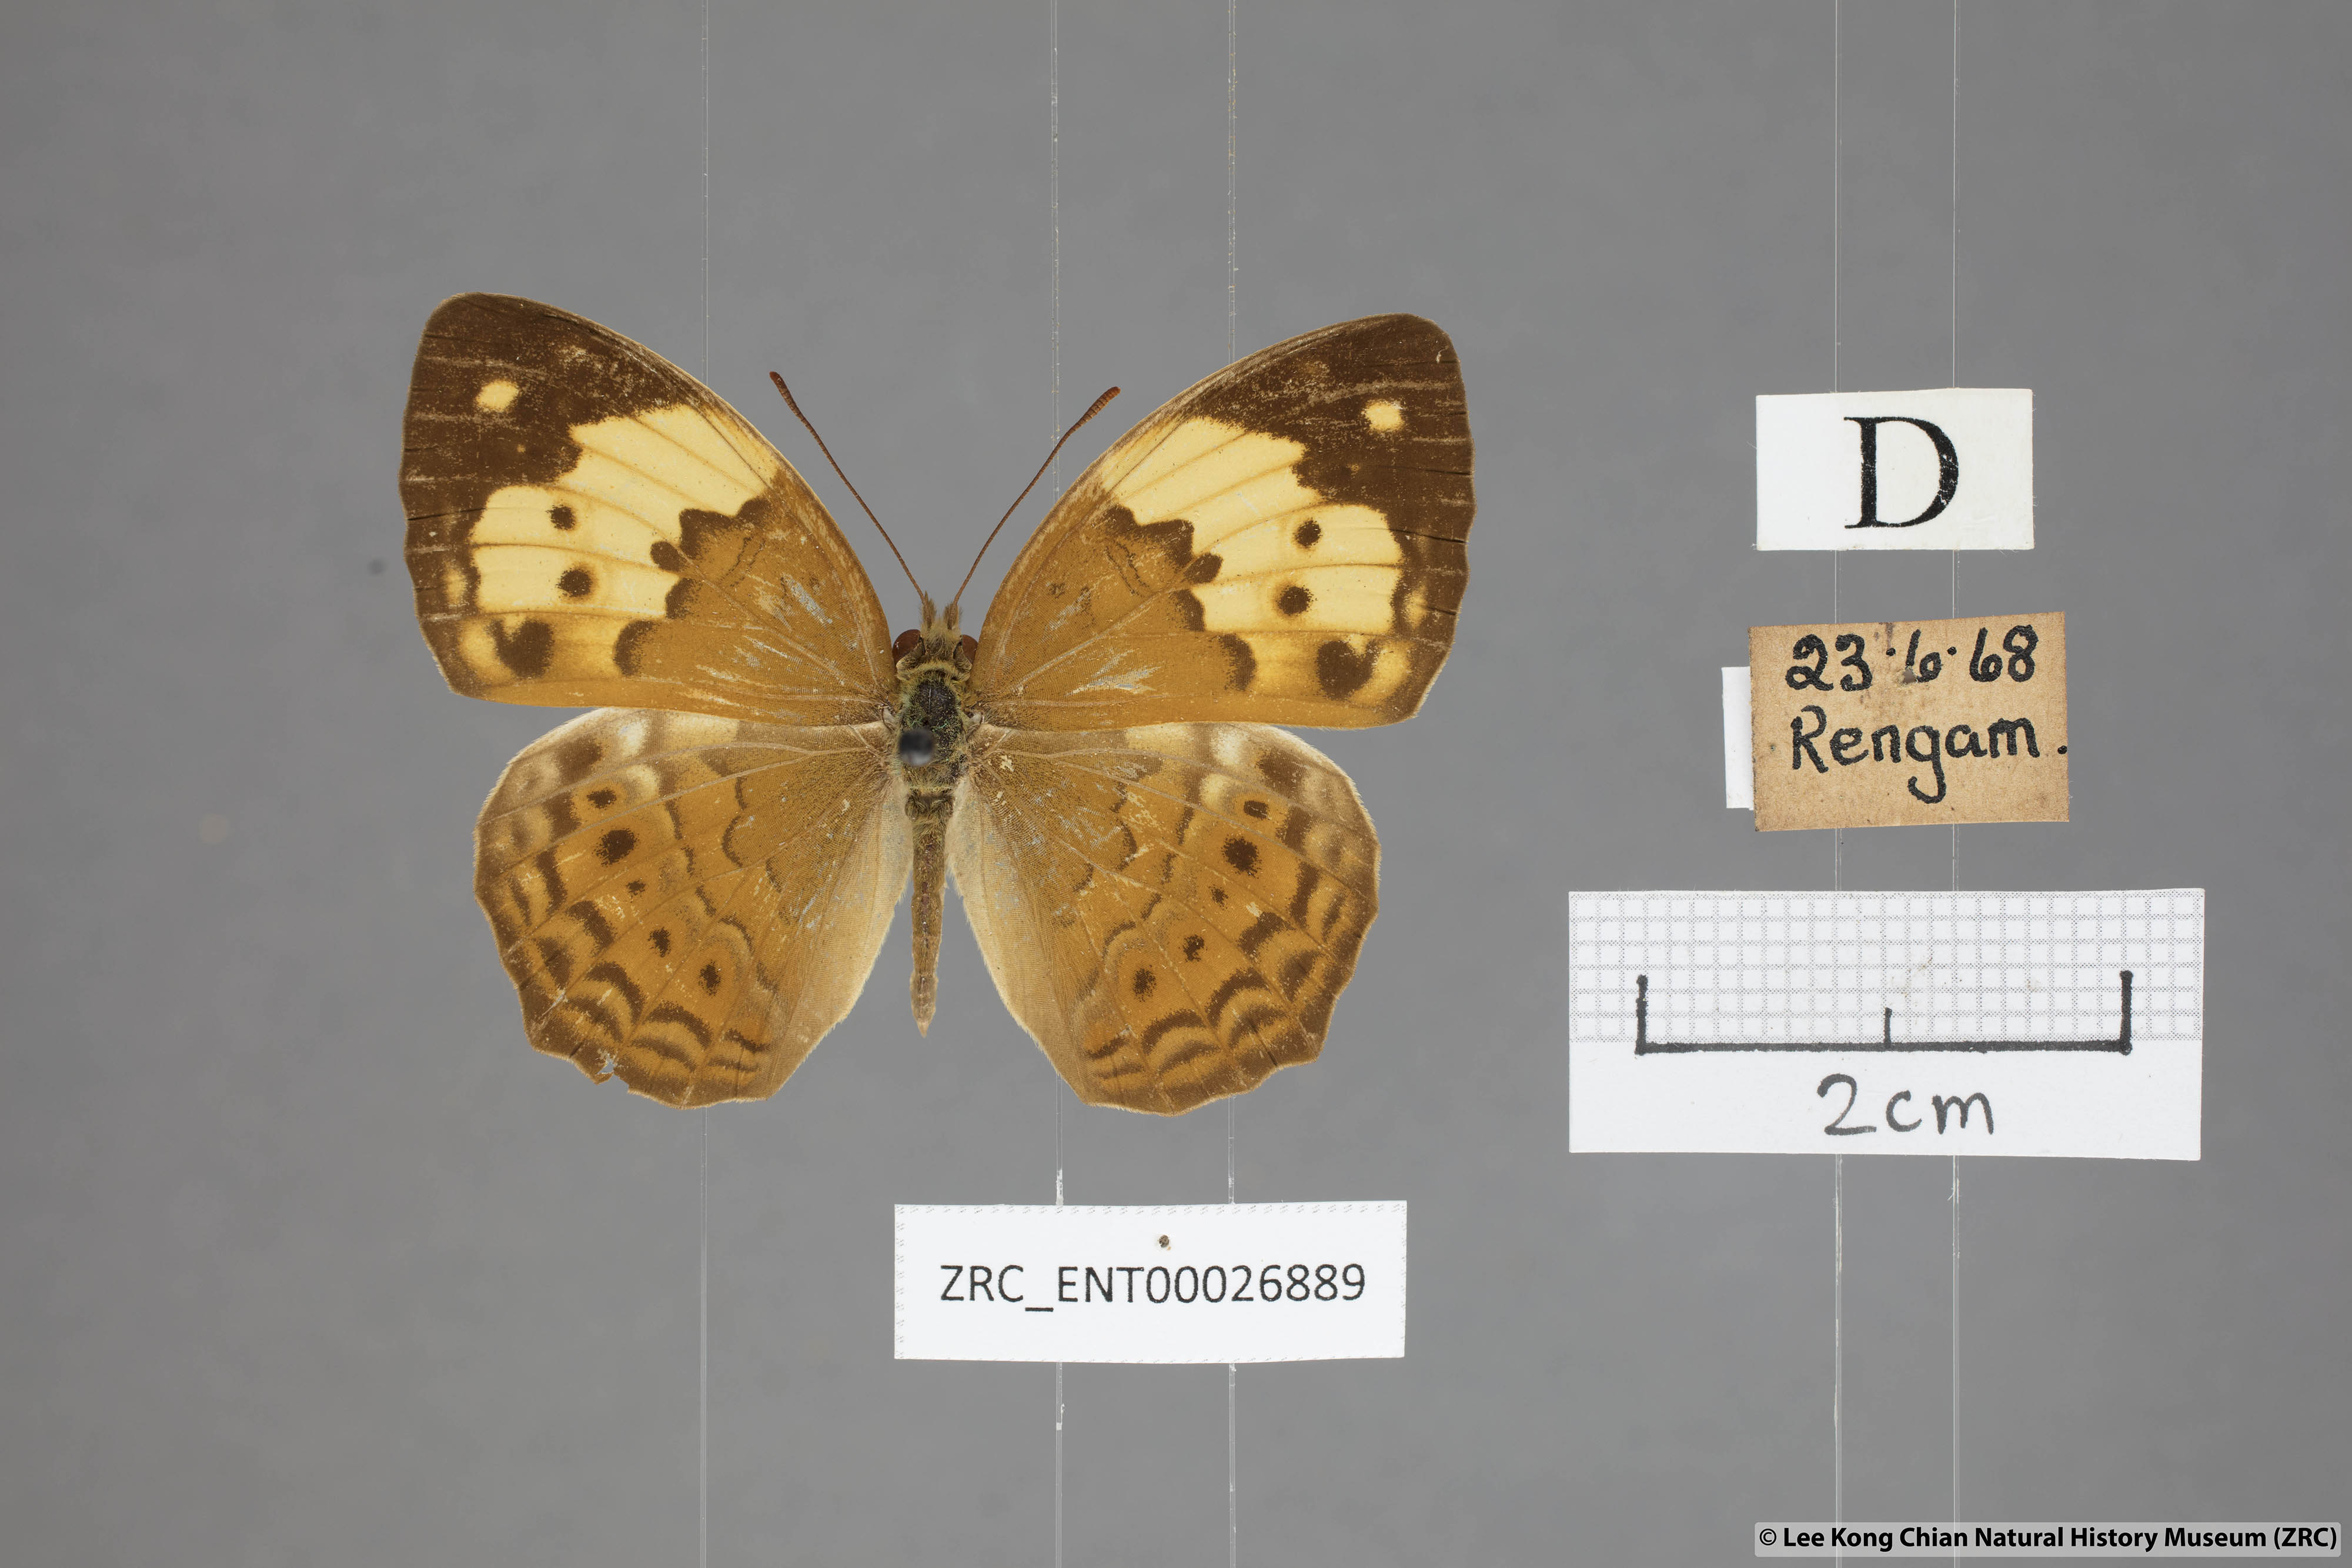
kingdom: Animalia
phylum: Arthropoda
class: Insecta
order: Lepidoptera
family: Nymphalidae
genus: Cupha
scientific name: Cupha erymanthis
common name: Rustic
